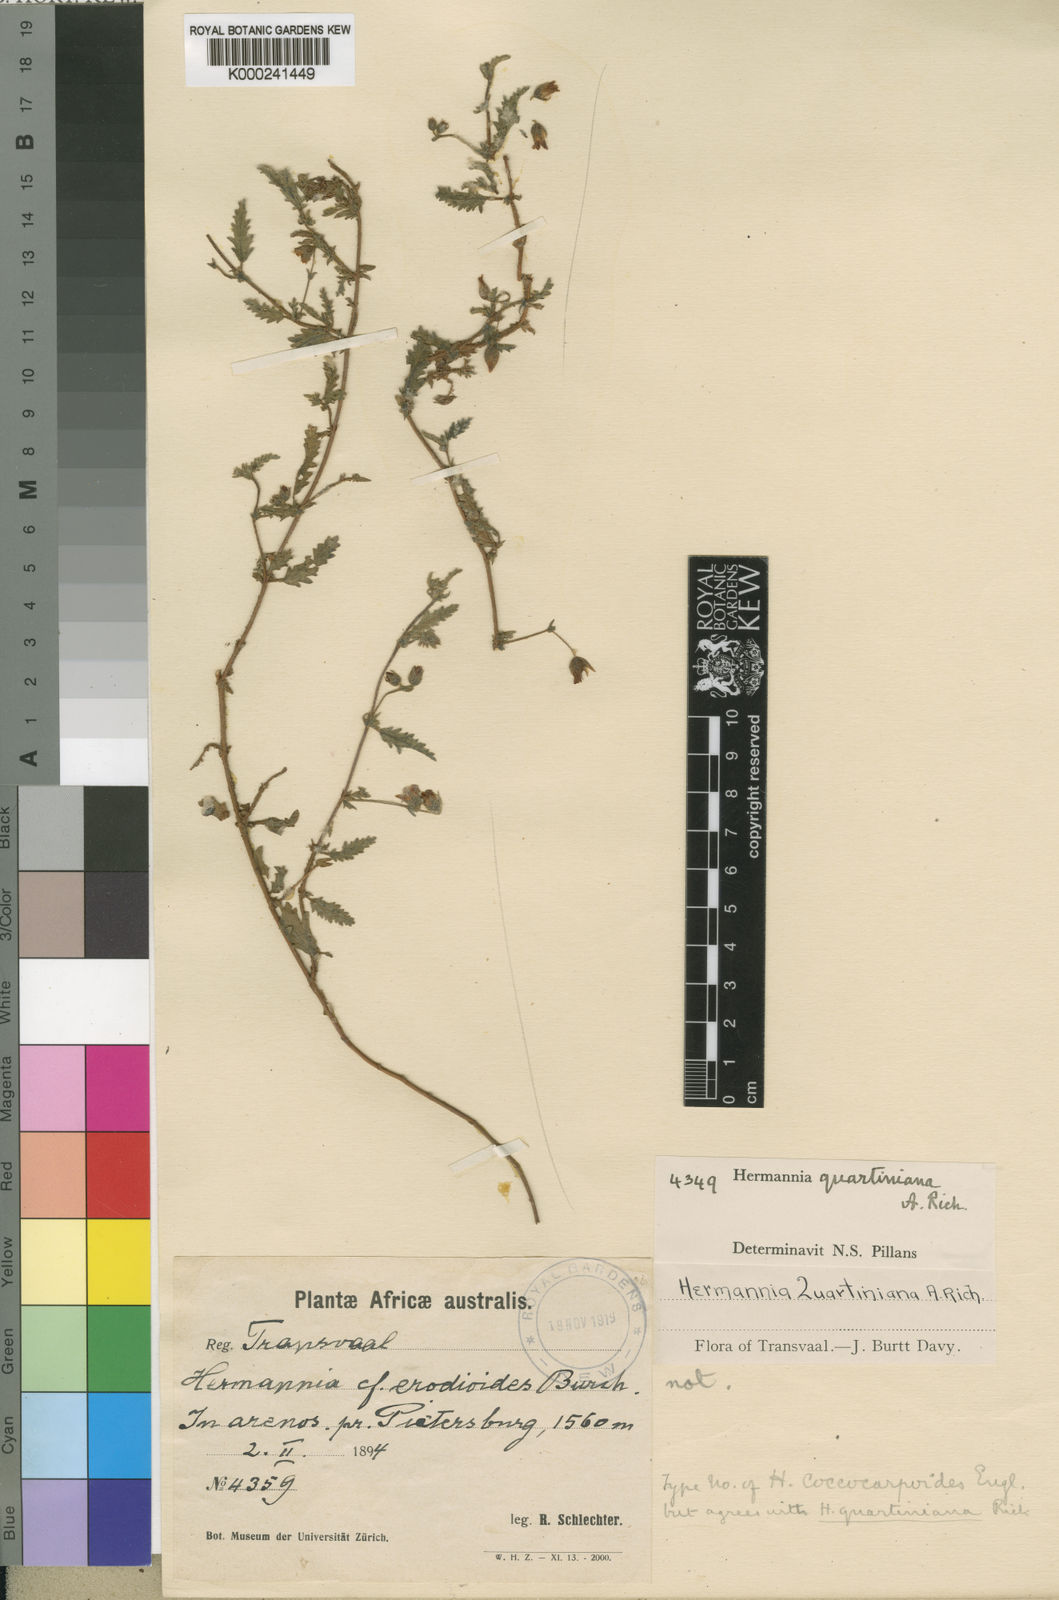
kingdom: Plantae
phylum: Tracheophyta
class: Magnoliopsida
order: Malvales
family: Malvaceae
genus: Hermannia
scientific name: Hermannia quartiniana
